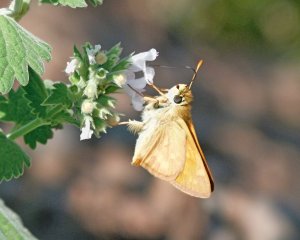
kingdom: Animalia
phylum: Arthropoda
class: Insecta
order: Lepidoptera
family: Hesperiidae
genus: Ochlodes
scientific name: Ochlodes sylvanoides
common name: Woodland Skipper
